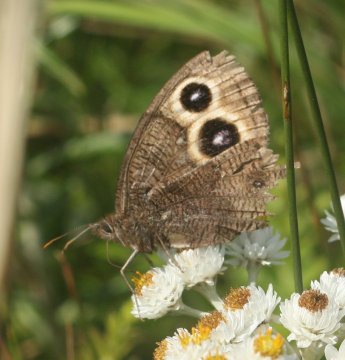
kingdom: Animalia
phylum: Arthropoda
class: Insecta
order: Lepidoptera
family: Nymphalidae
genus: Cercyonis
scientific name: Cercyonis pegala
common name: Common Wood-Nymph
